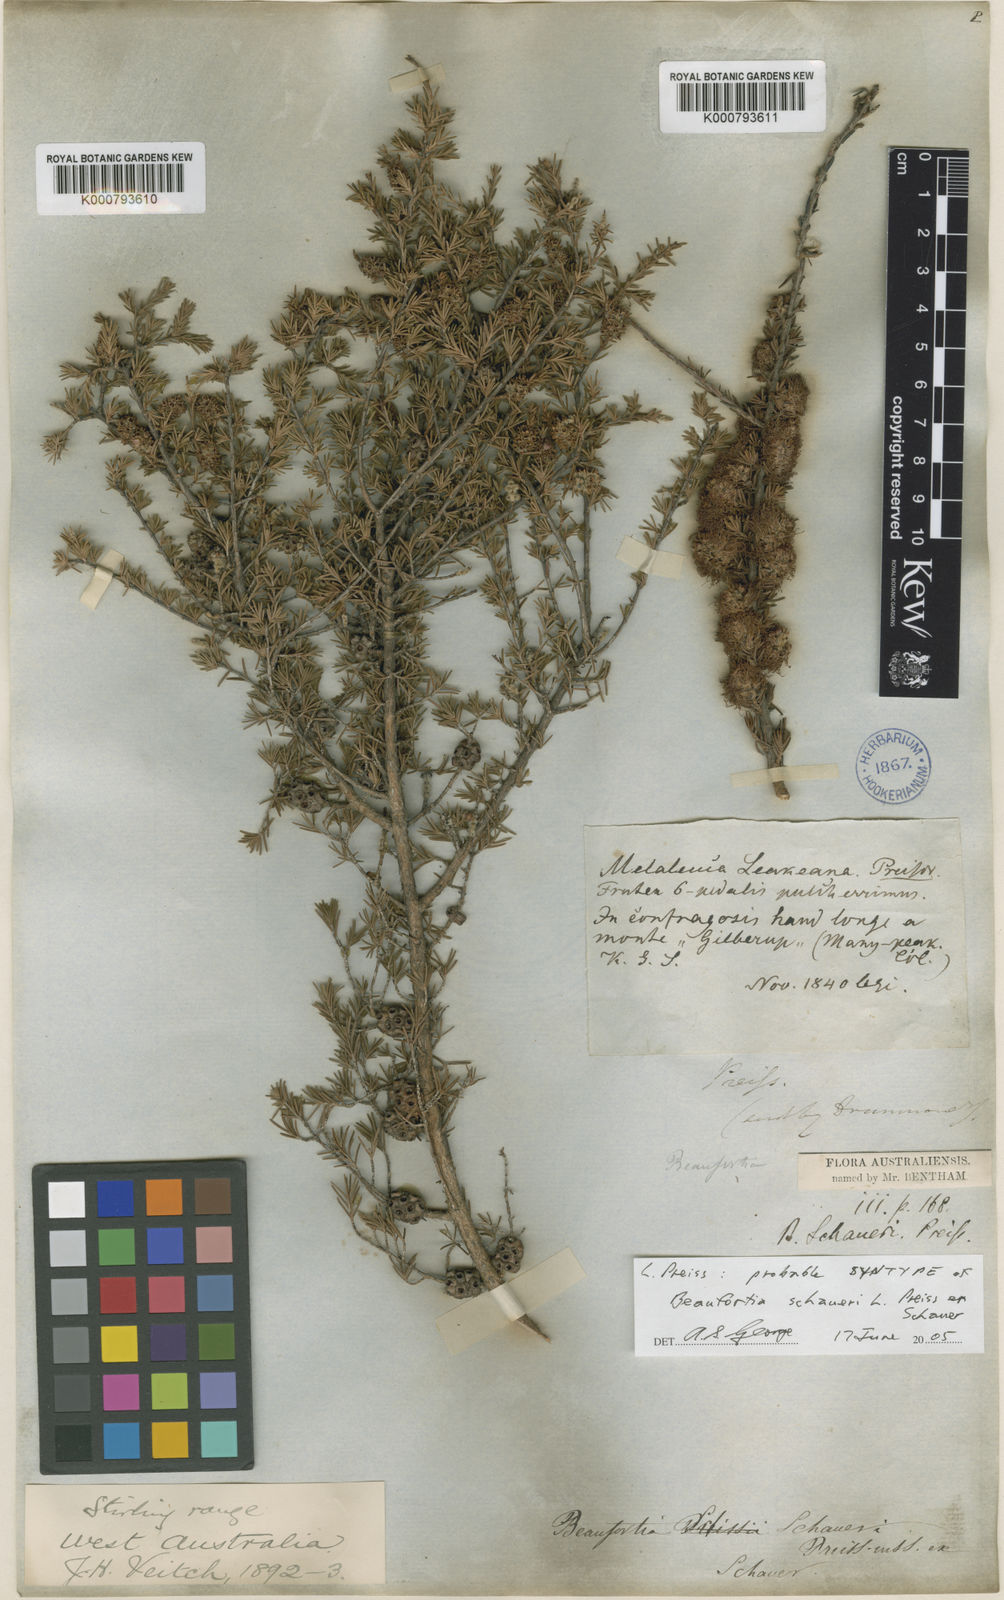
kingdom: Plantae
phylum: Tracheophyta
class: Magnoliopsida
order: Myrtales
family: Myrtaceae
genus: Melaleuca
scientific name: Melaleuca jonesii
